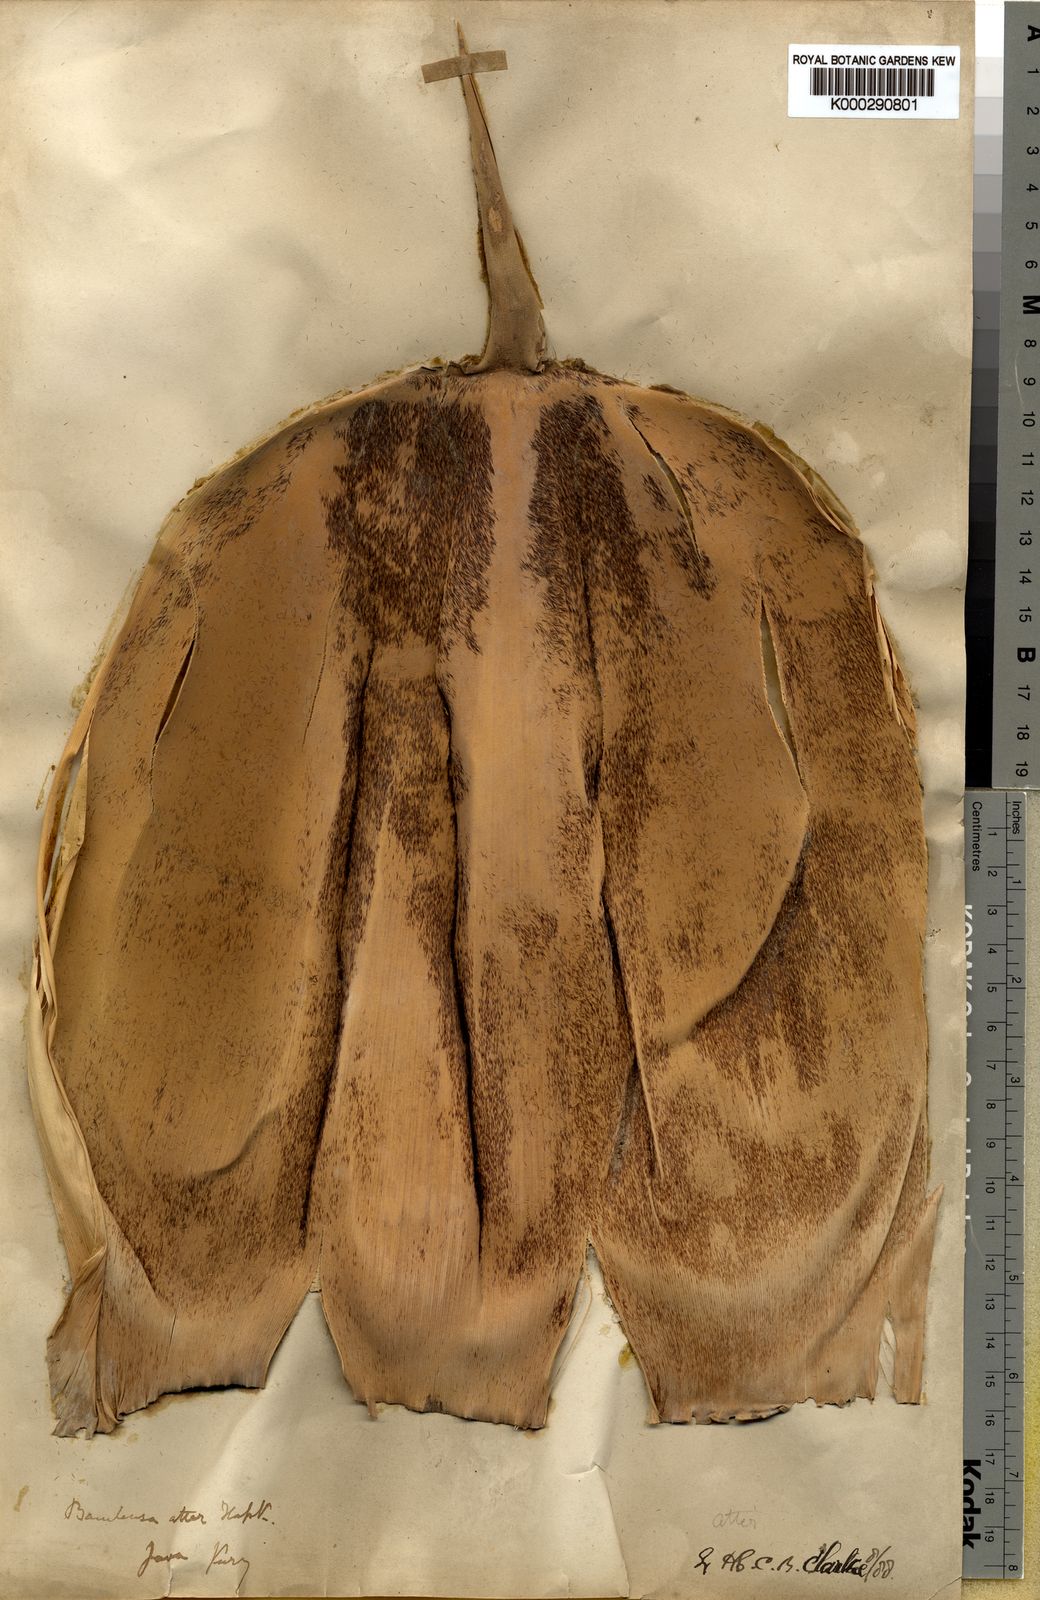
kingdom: Plantae
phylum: Tracheophyta
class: Liliopsida
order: Poales
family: Poaceae
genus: Gigantochloa
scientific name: Gigantochloa atter
